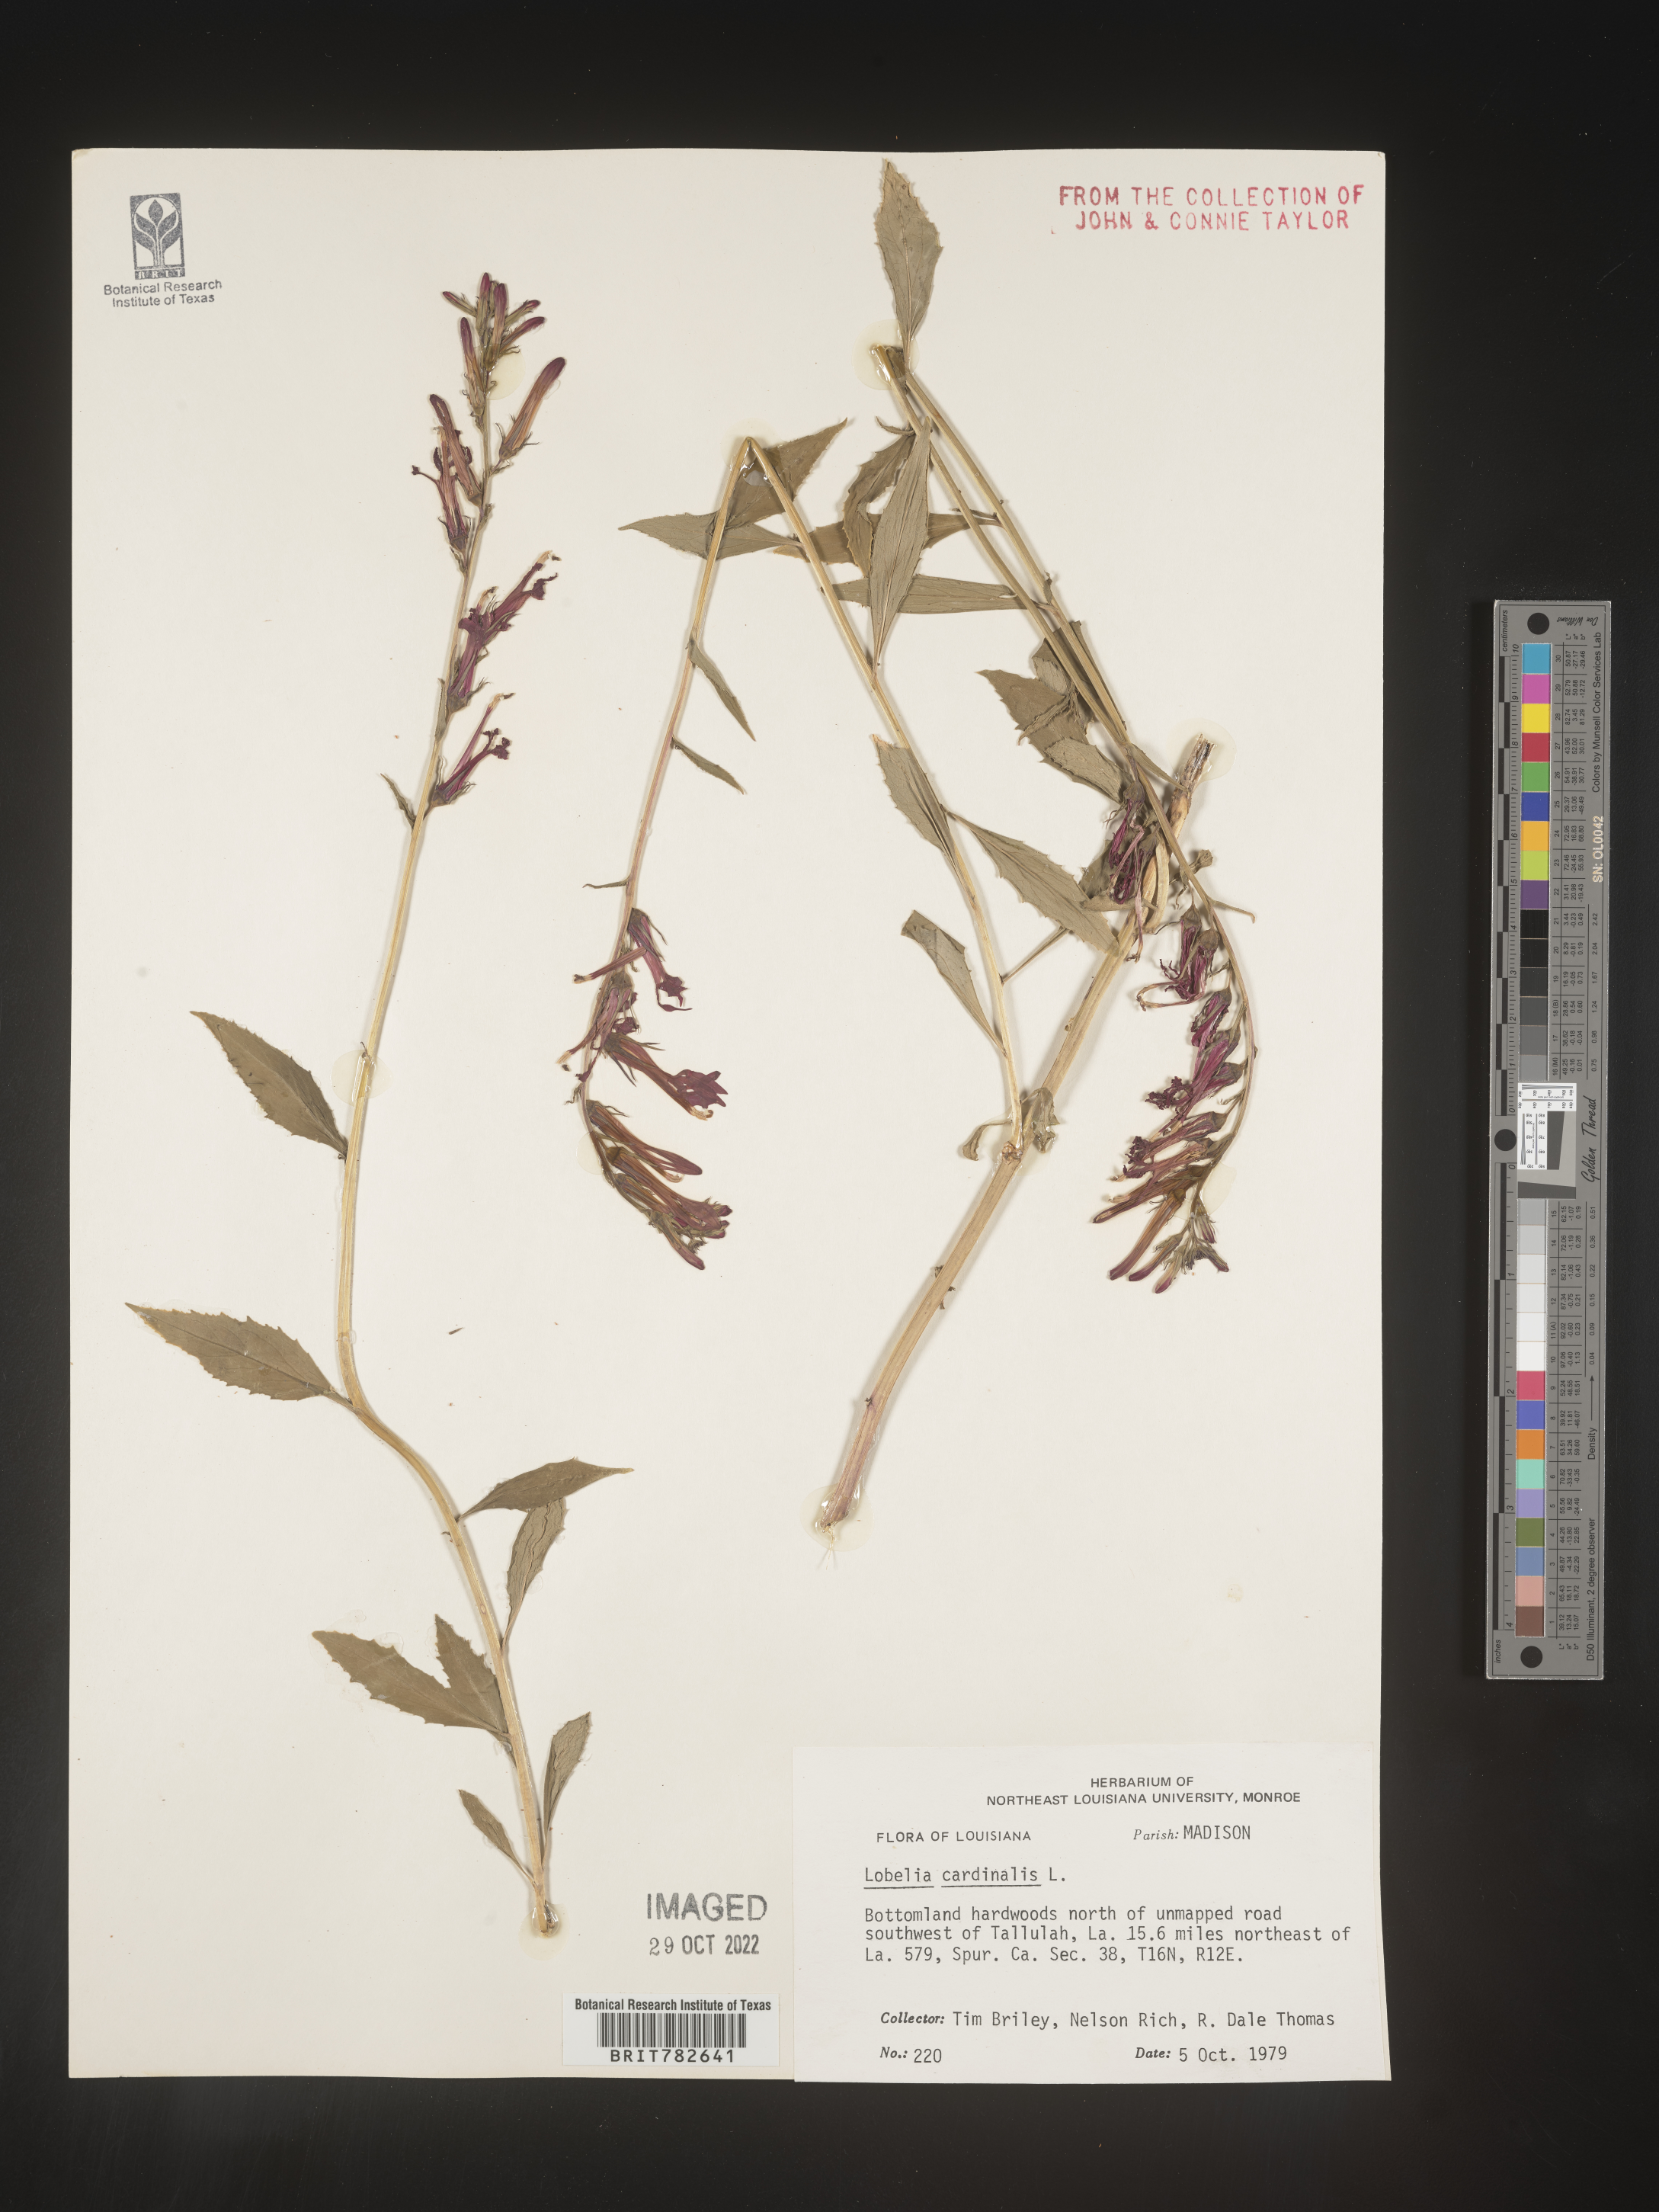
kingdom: Plantae
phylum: Tracheophyta
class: Magnoliopsida
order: Asterales
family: Campanulaceae
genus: Lobelia
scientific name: Lobelia cardinalis
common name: Cardinal flower
